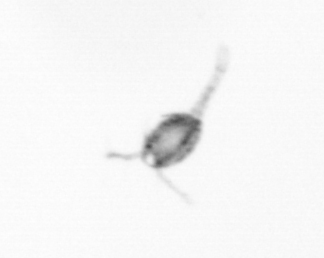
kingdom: Animalia
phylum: Arthropoda
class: Copepoda
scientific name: Copepoda
